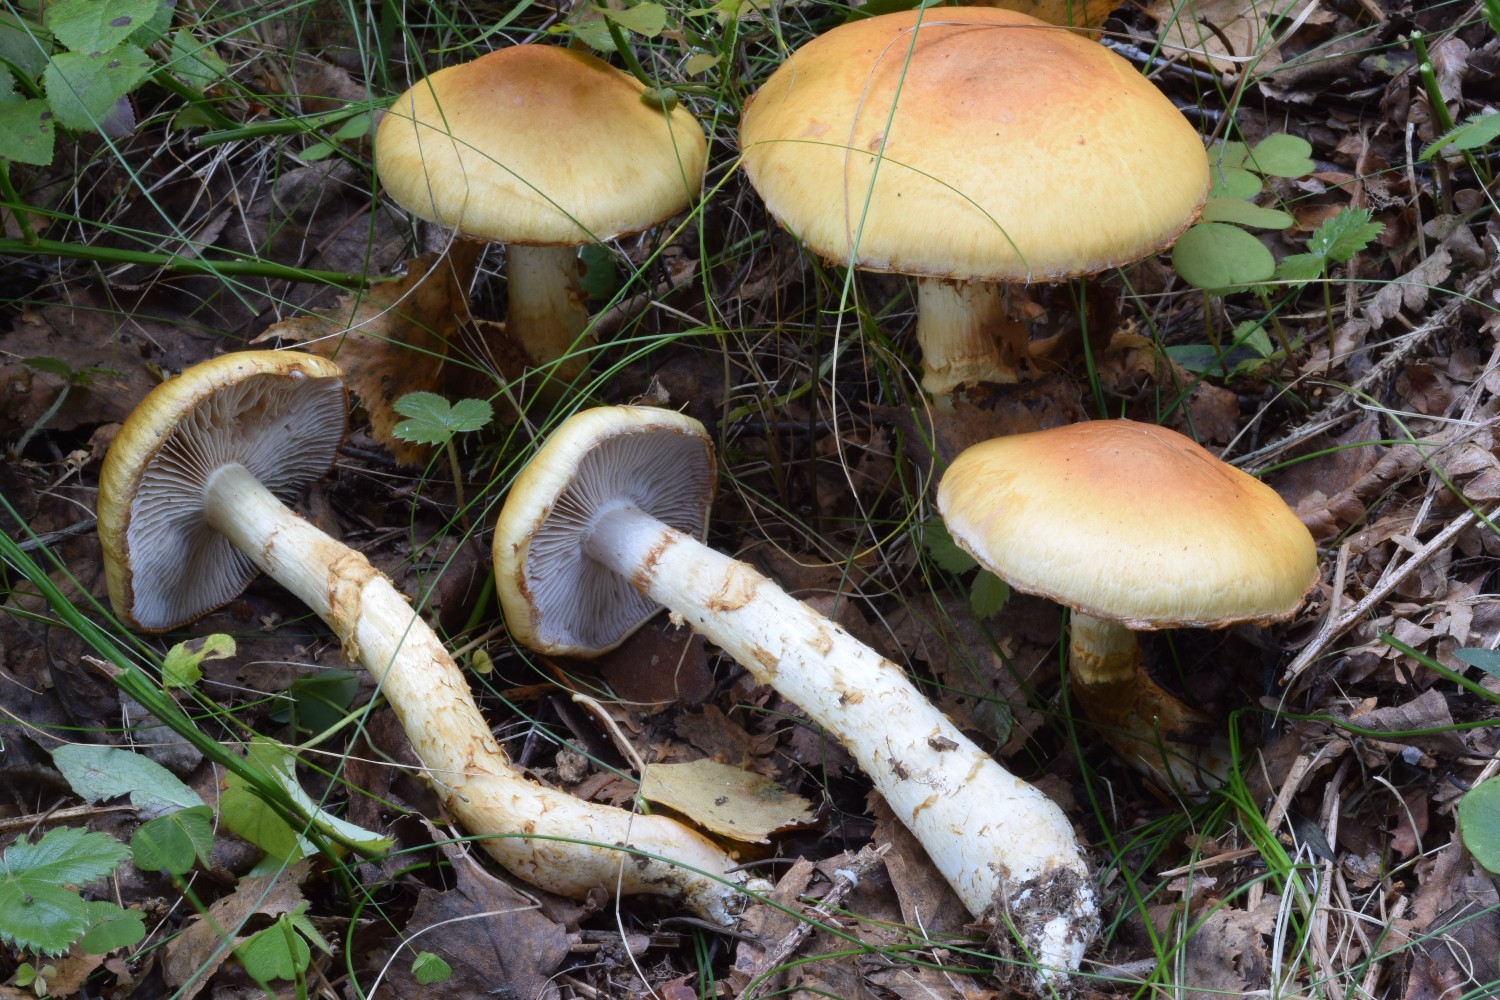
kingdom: Fungi
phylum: Basidiomycota
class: Agaricomycetes
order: Agaricales
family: Cortinariaceae
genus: Phlegmacium
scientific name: Phlegmacium triumphans
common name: gulbæltet slørhat
